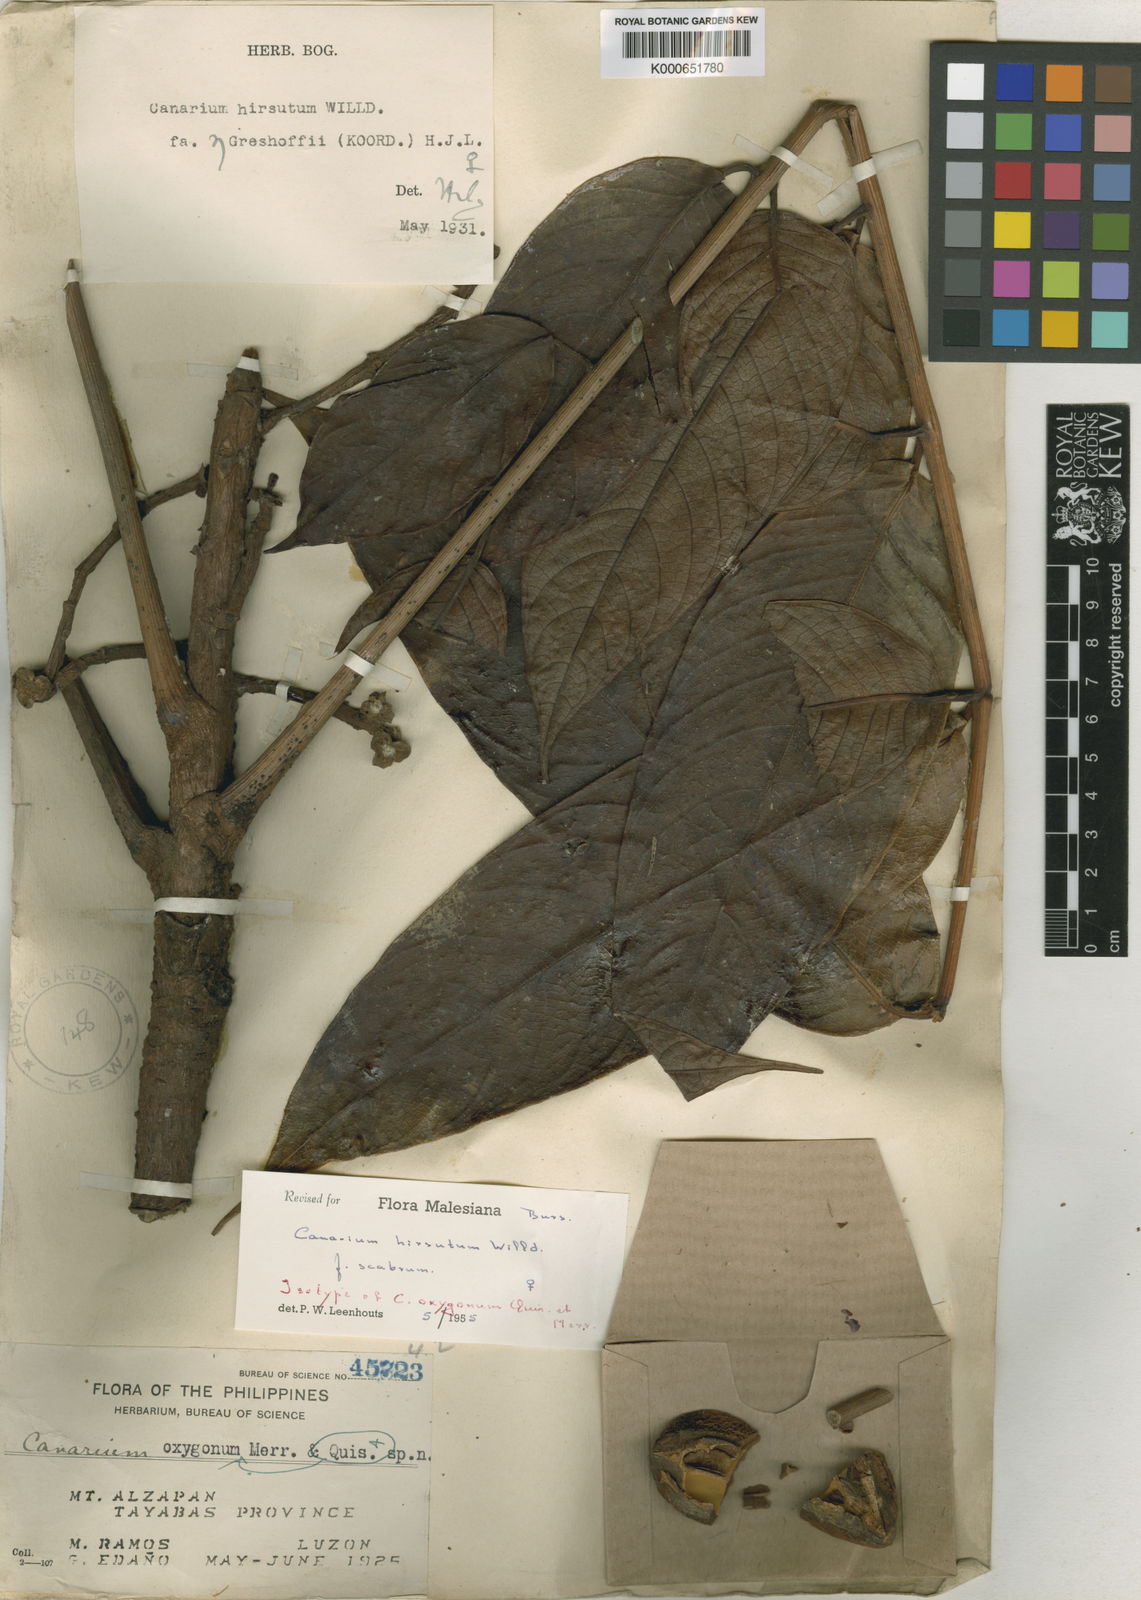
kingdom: Plantae
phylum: Tracheophyta
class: Magnoliopsida
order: Sapindales
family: Burseraceae
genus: Canarium
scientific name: Canarium hirsutum
